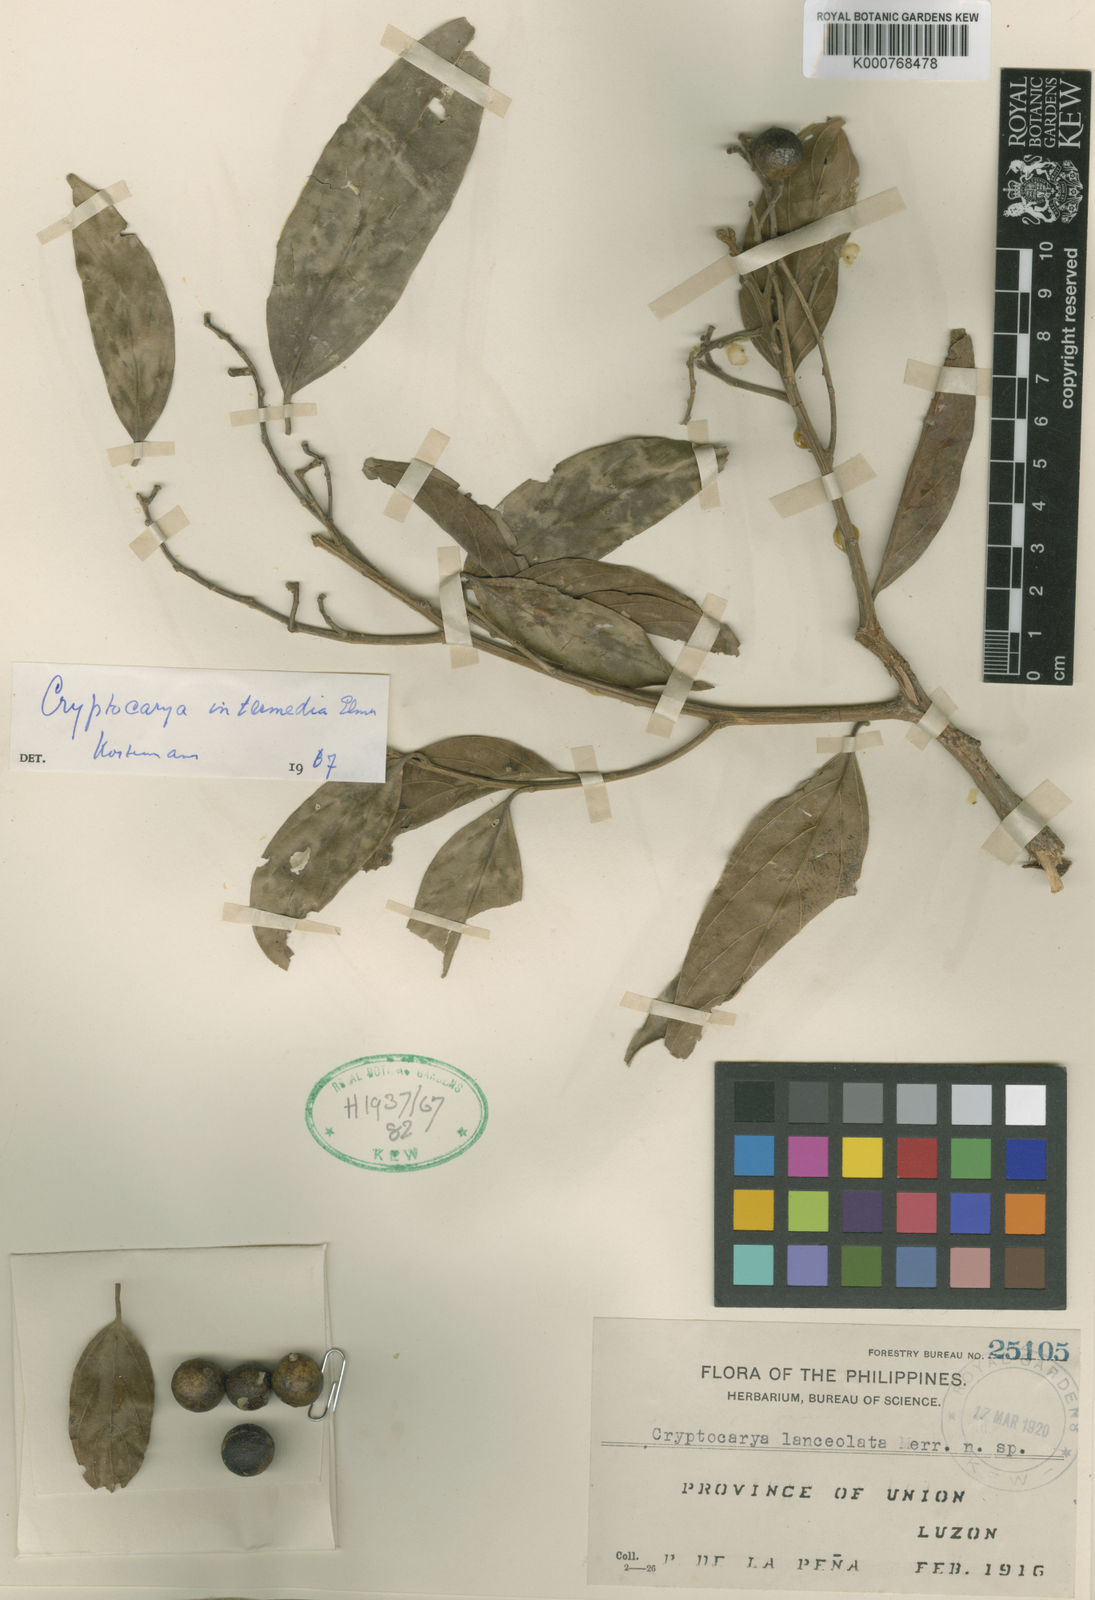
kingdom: Plantae
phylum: Tracheophyta
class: Magnoliopsida
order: Laurales
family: Lauraceae
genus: Cryptocarya
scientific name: Cryptocarya intermedia
